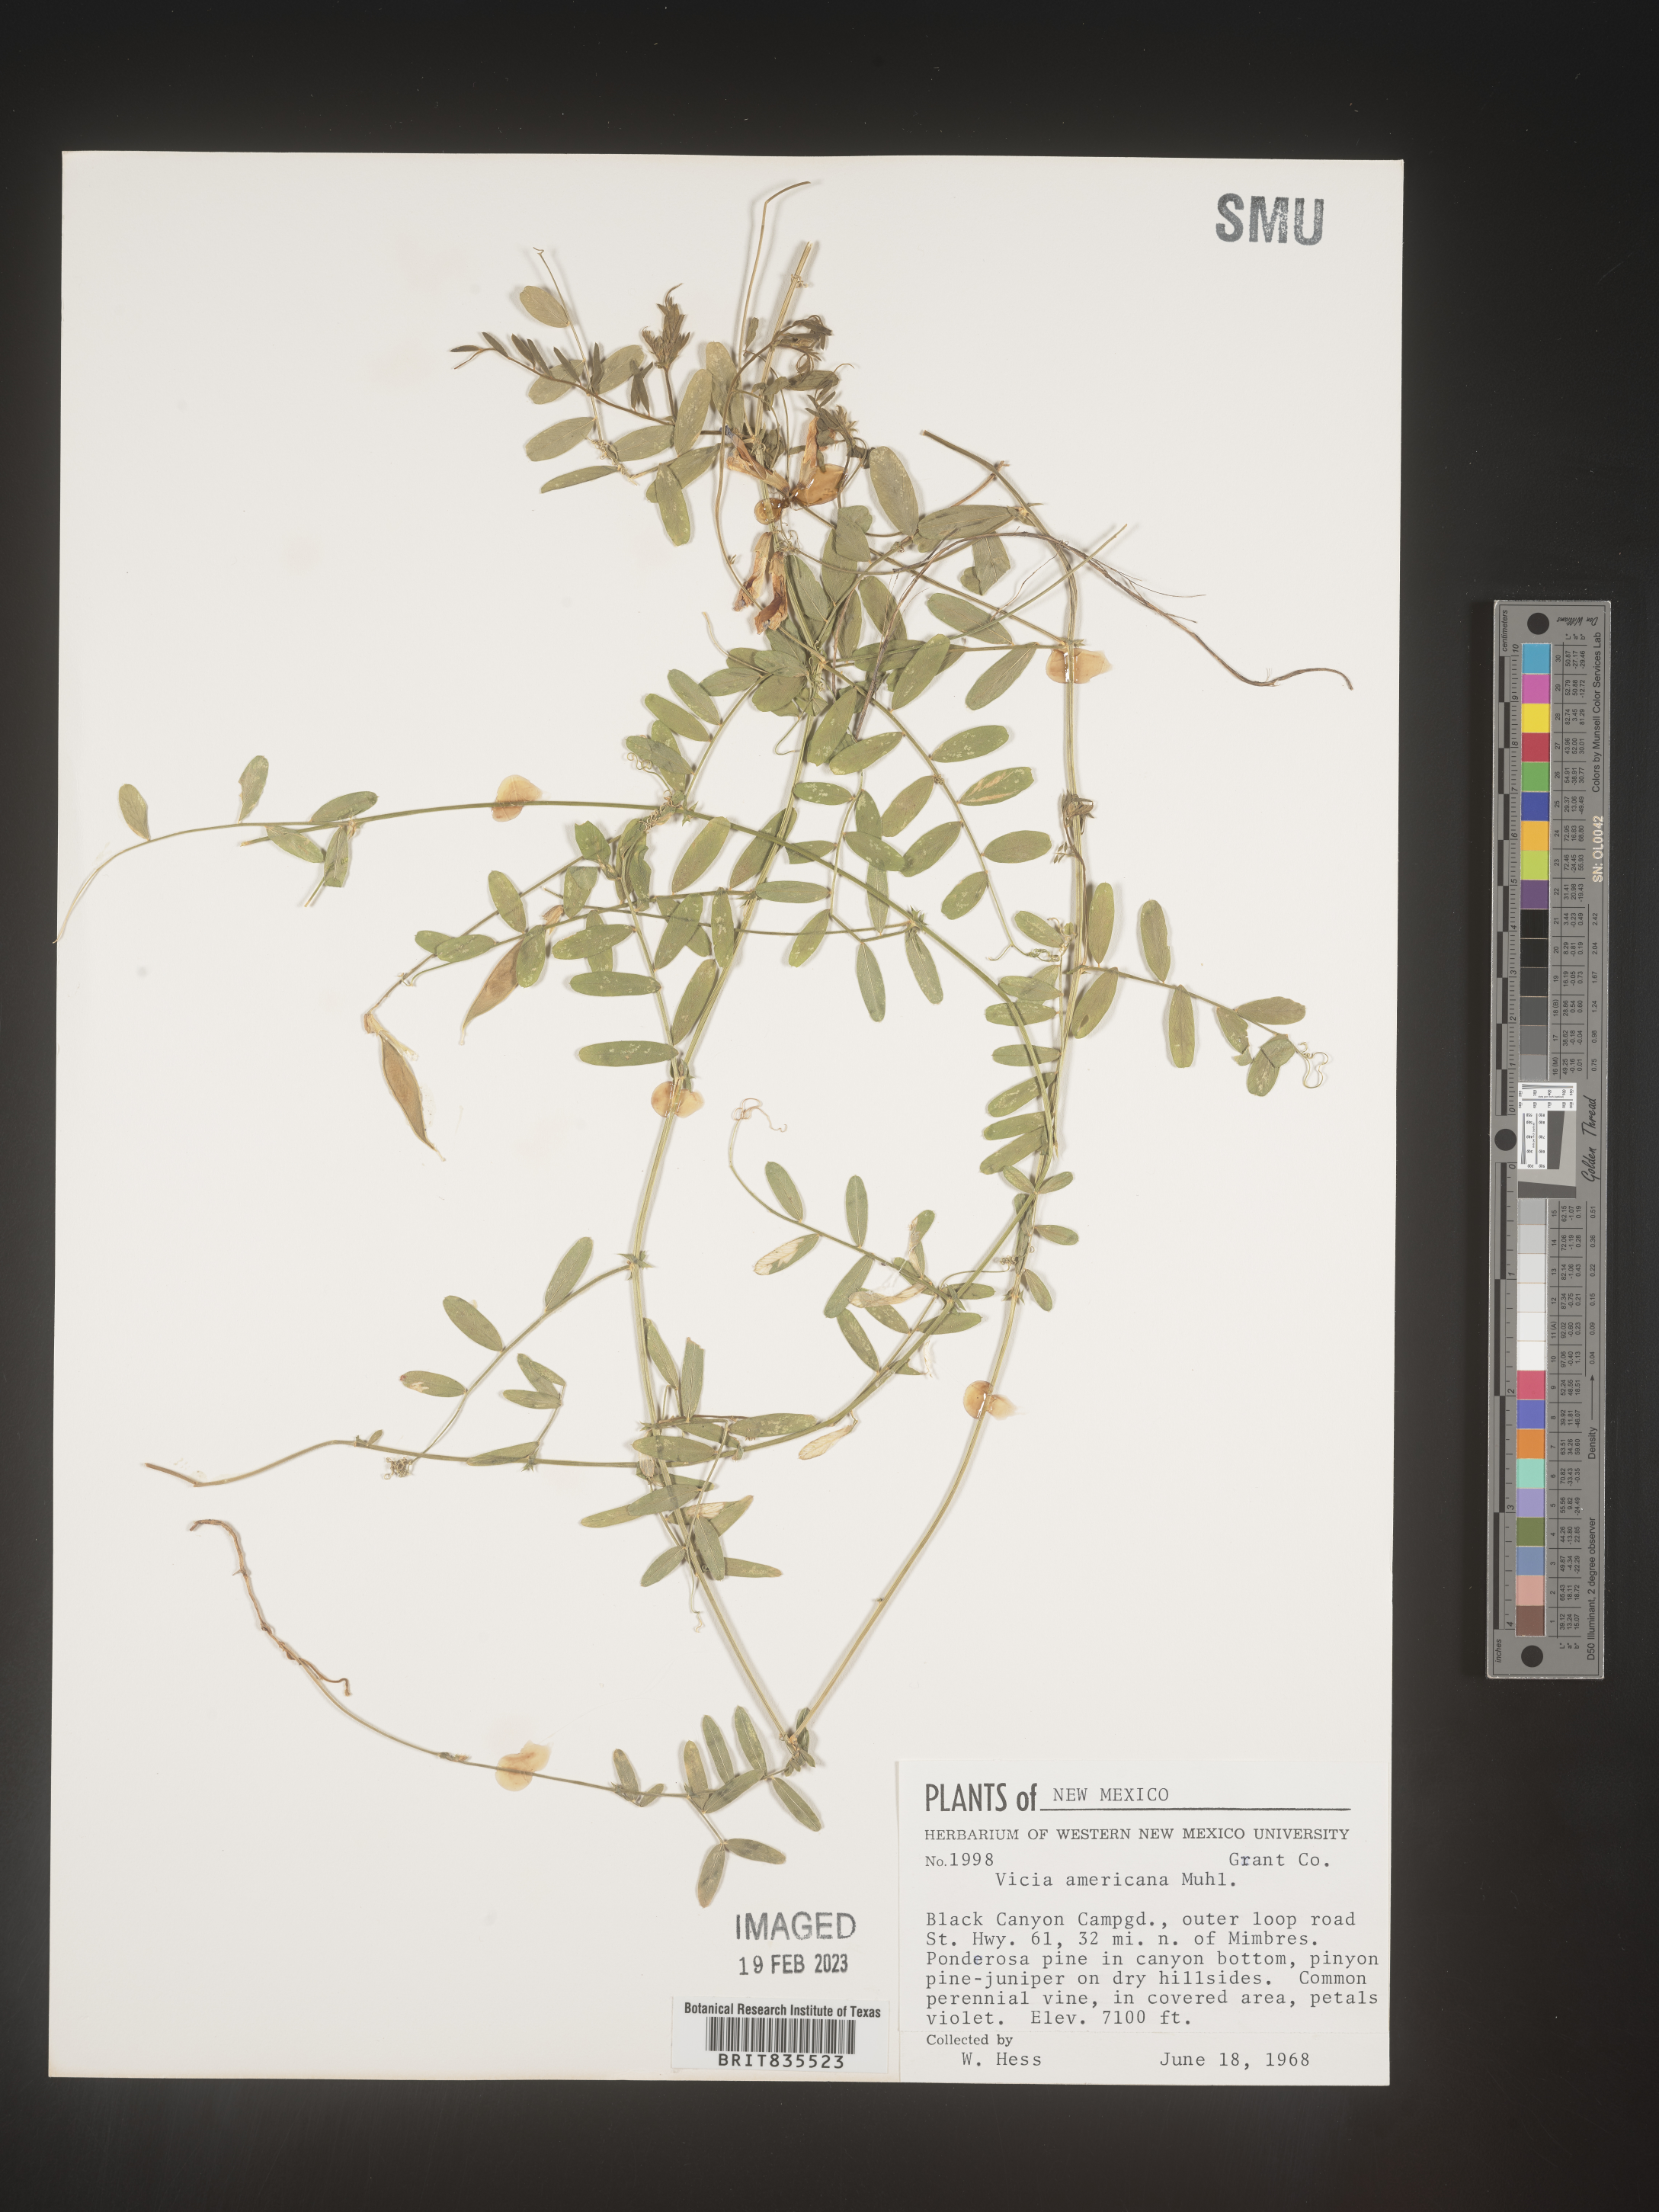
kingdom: Plantae
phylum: Tracheophyta
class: Magnoliopsida
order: Fabales
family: Fabaceae
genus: Vicia
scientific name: Vicia americana
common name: American vetch
